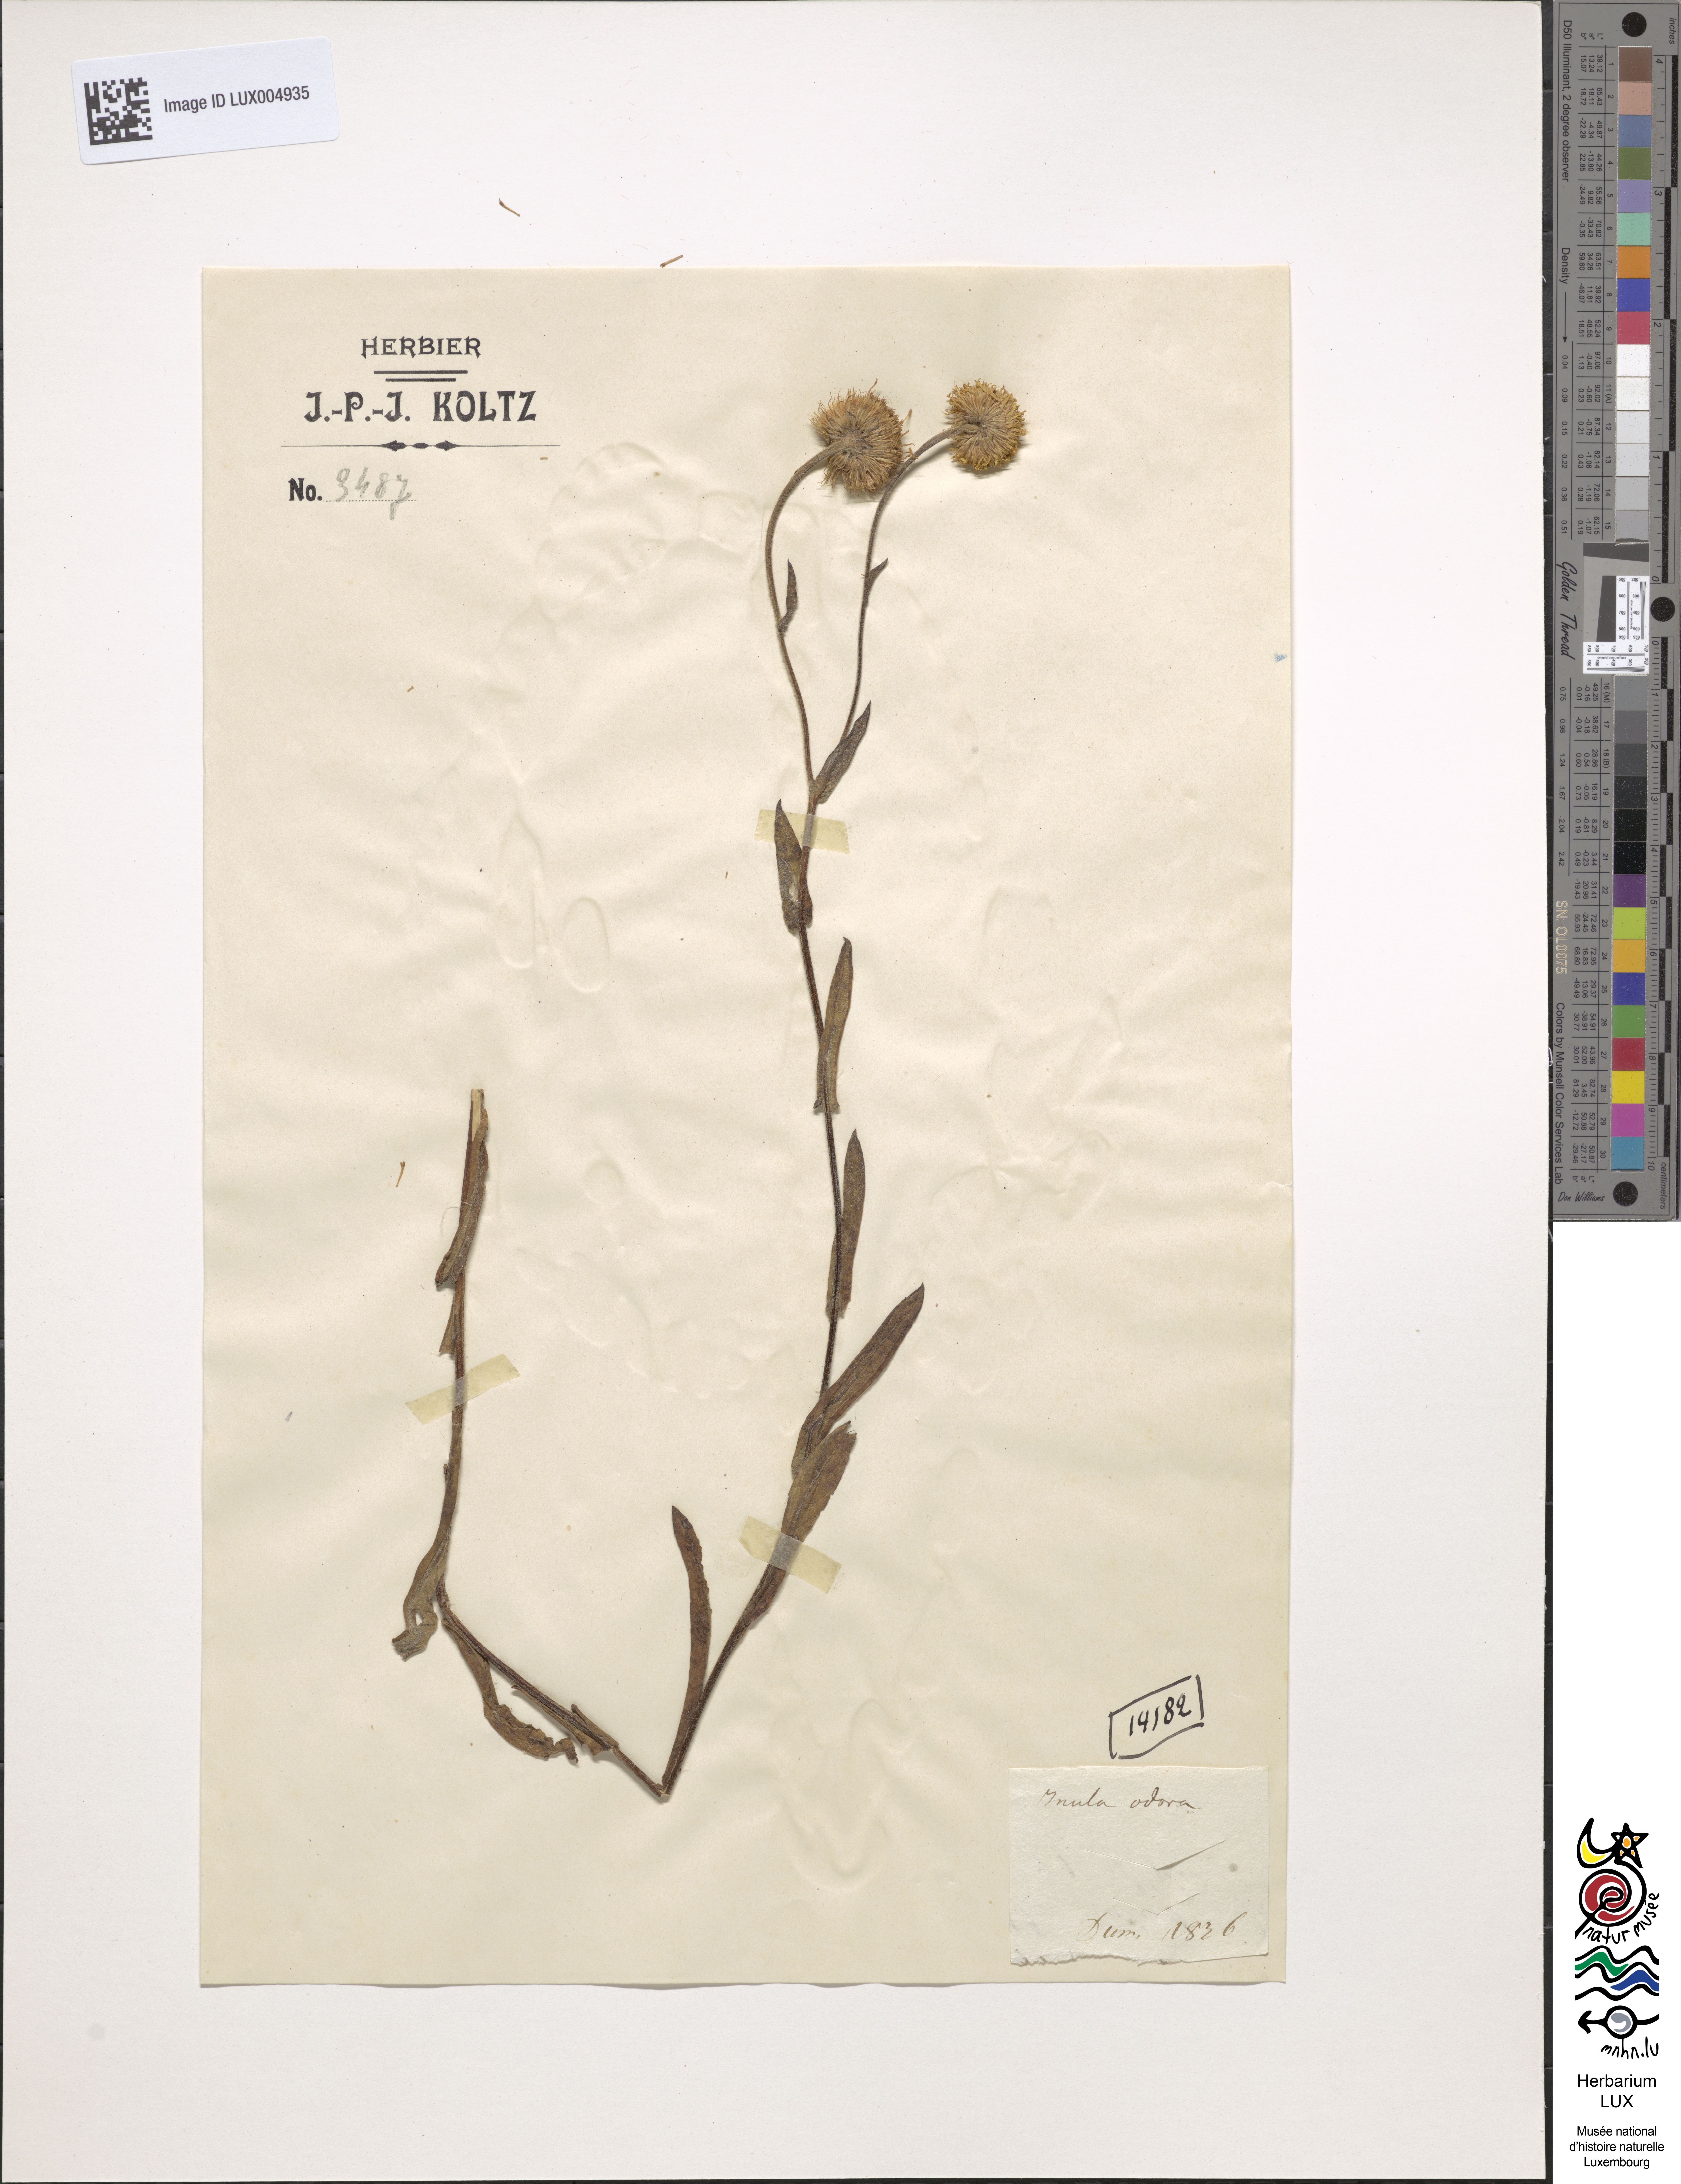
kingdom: Plantae
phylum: Tracheophyta
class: Magnoliopsida
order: Asterales
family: Asteraceae
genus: Pulicaria
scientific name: Pulicaria odora
